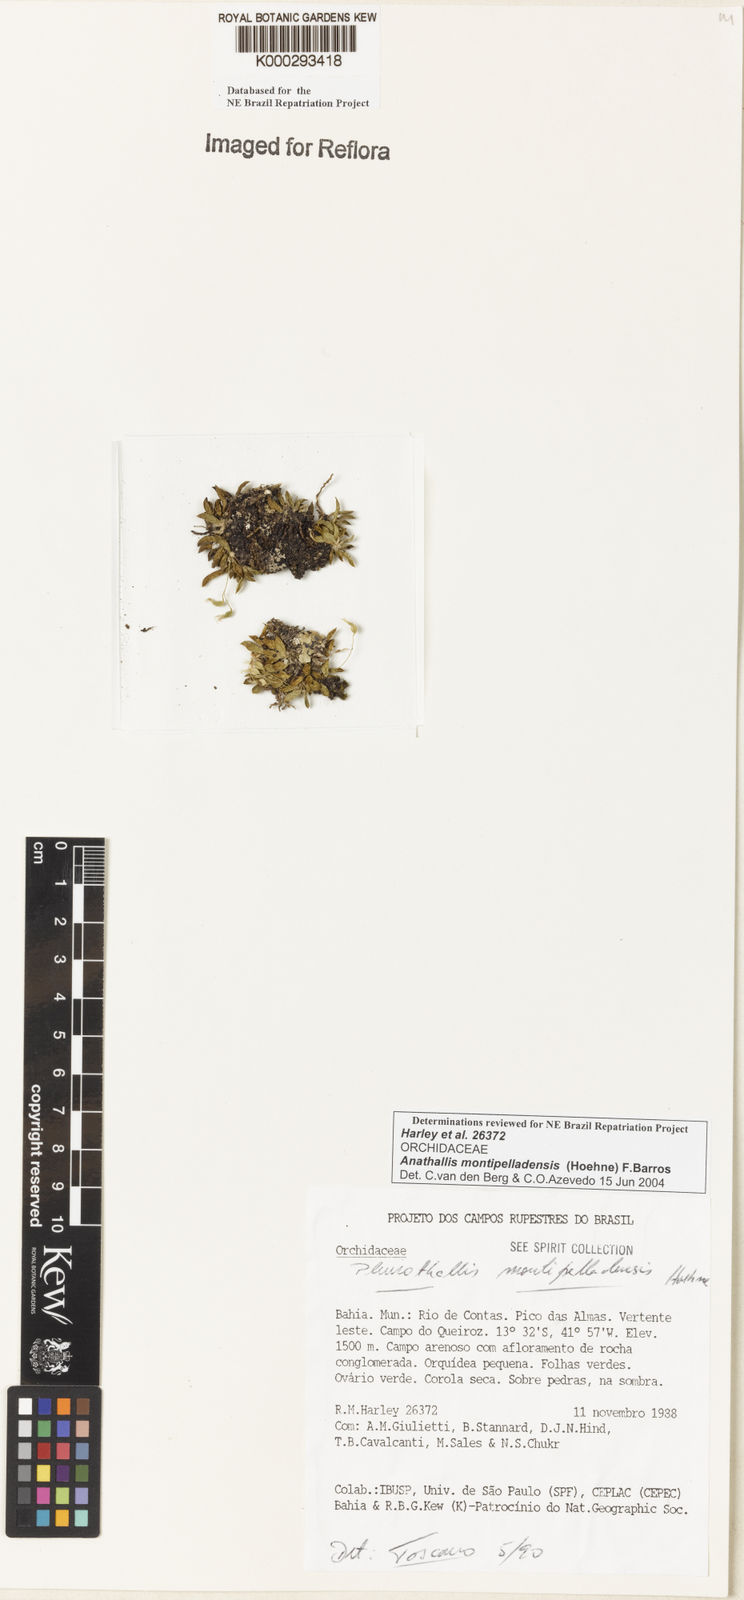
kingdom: Plantae
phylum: Tracheophyta
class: Liliopsida
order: Asparagales
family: Orchidaceae
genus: Anathallis
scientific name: Anathallis montipelladensis
